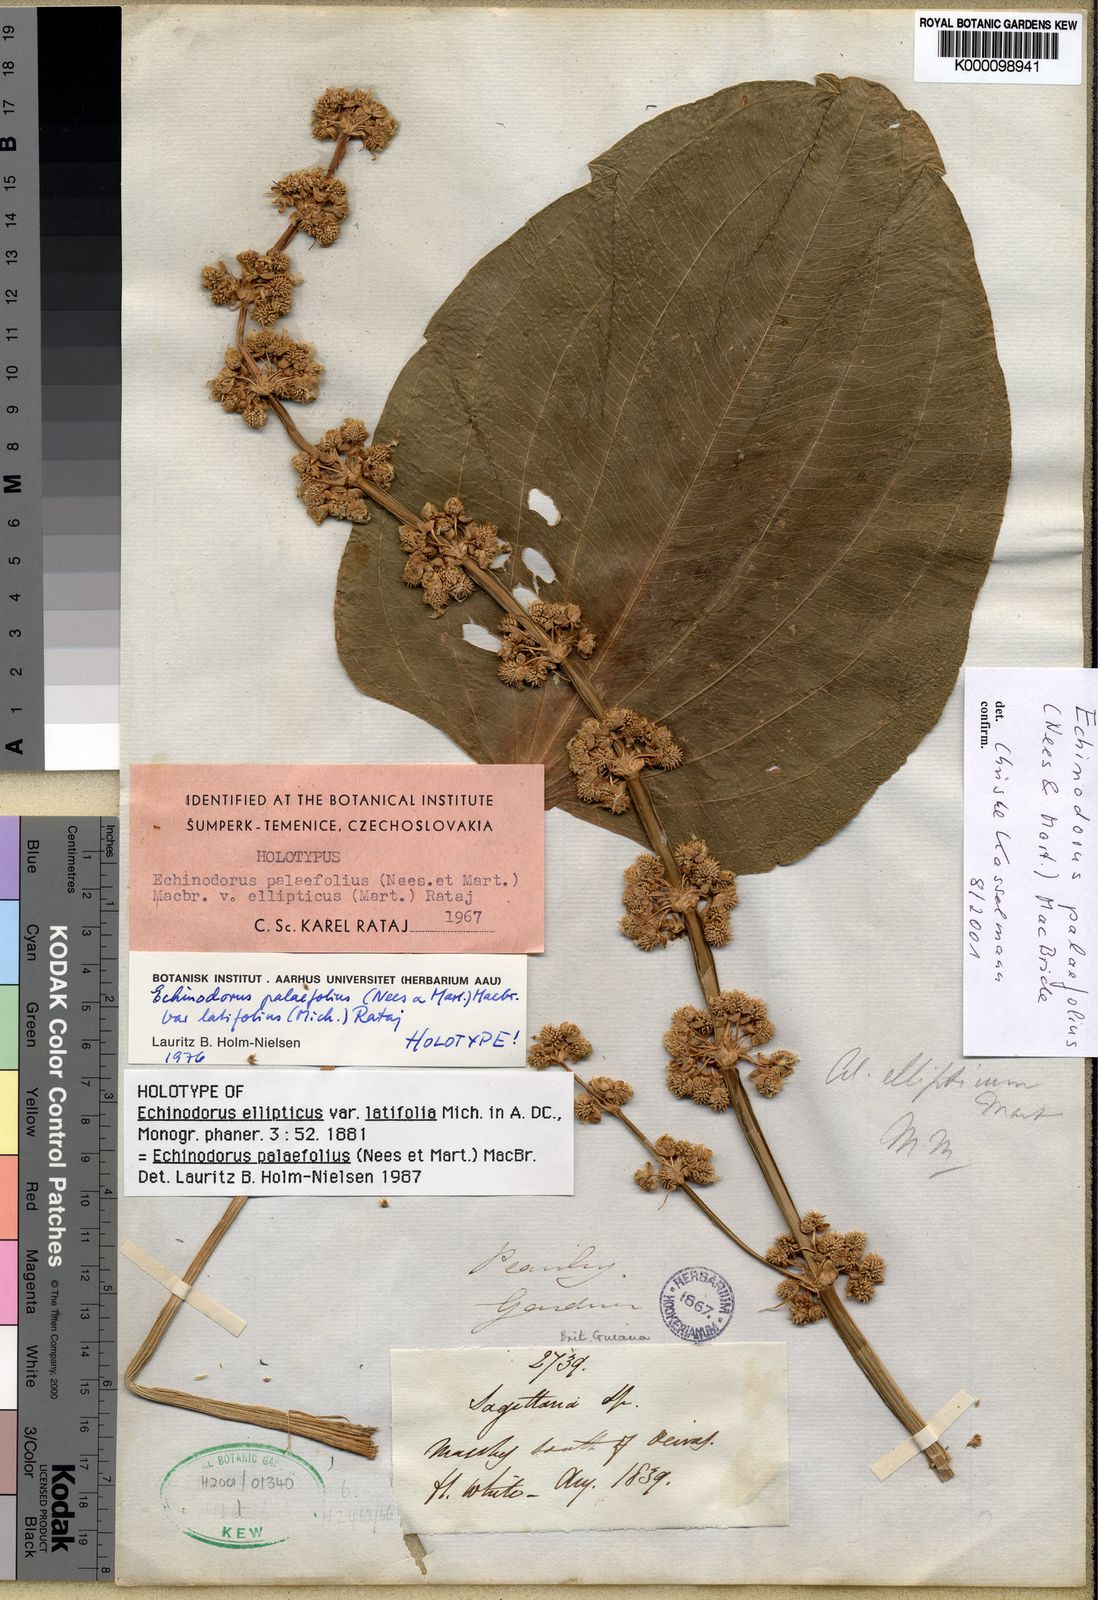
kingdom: Plantae
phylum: Tracheophyta
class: Liliopsida
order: Alismatales
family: Alismataceae
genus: Aquarius
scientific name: Aquarius palifolius
